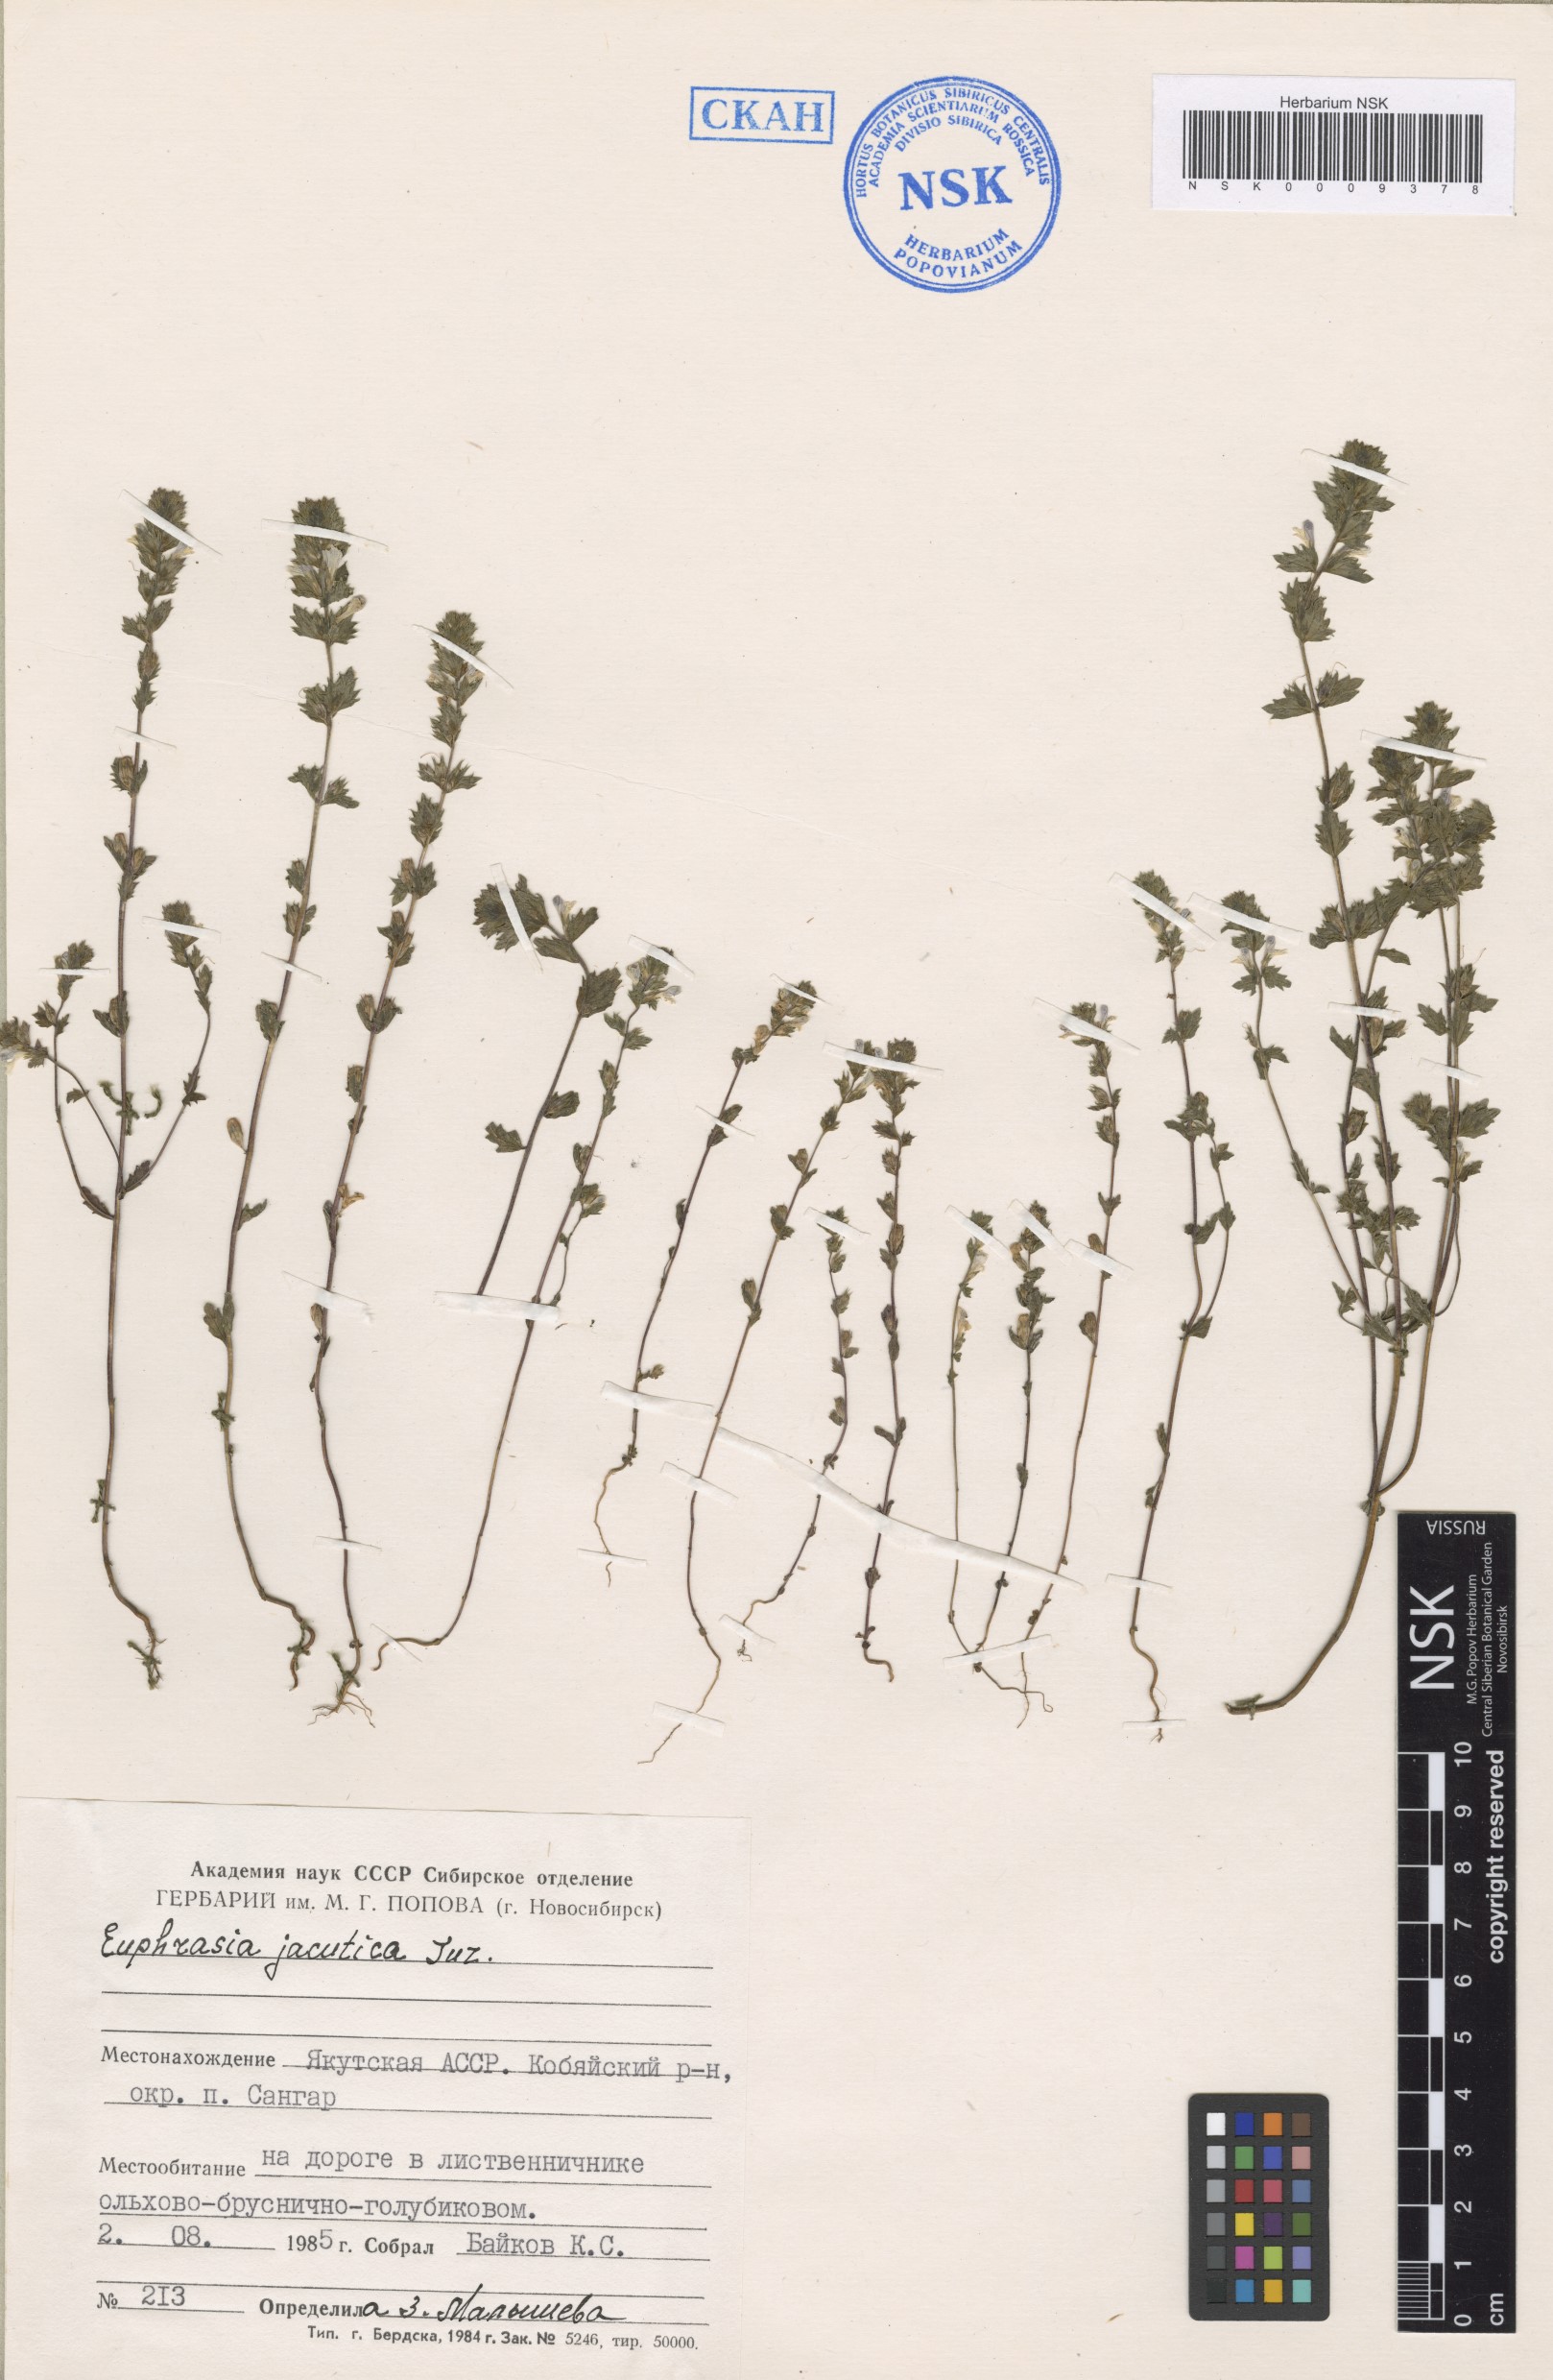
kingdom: Plantae
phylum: Tracheophyta
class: Magnoliopsida
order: Lamiales
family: Orobanchaceae
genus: Euphrasia
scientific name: Euphrasia jacutica
